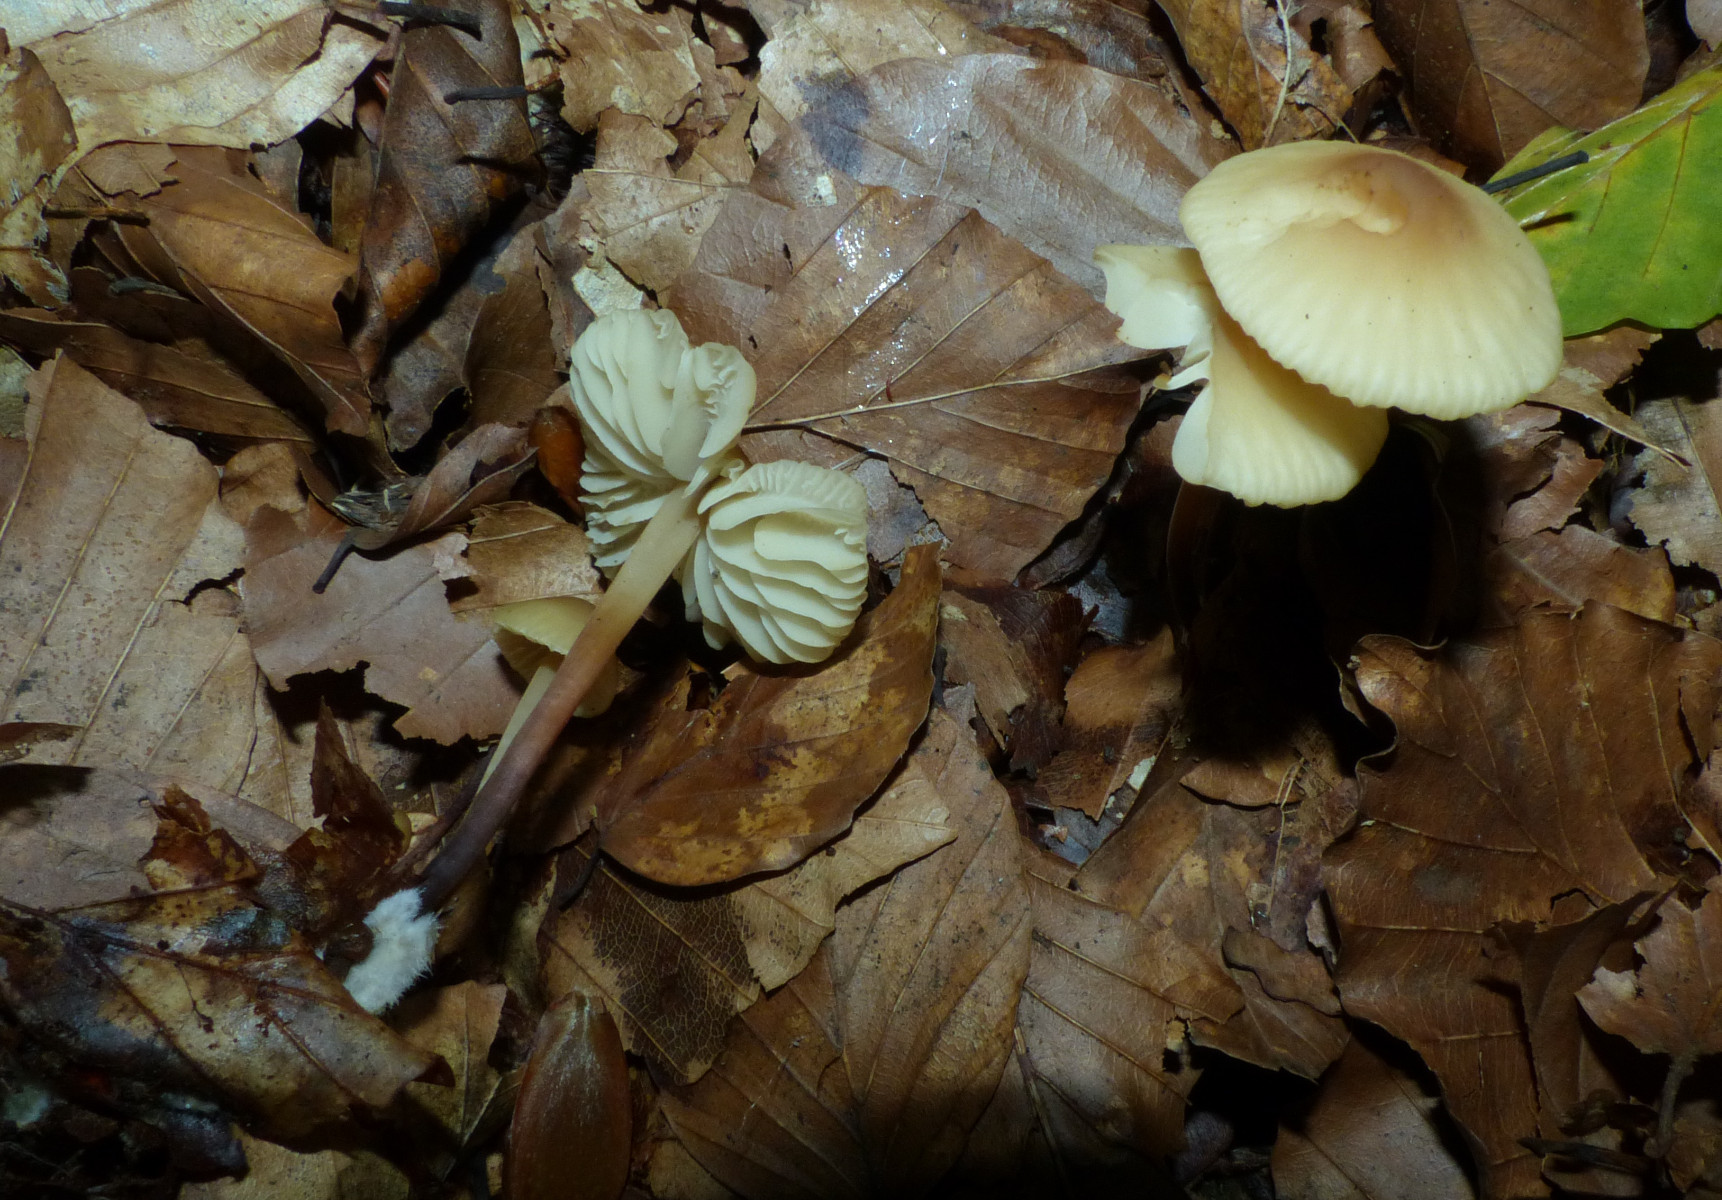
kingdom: Fungi
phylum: Basidiomycota
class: Agaricomycetes
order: Agaricales
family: Marasmiaceae
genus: Marasmius
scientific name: Marasmius torquescens
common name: filtfodet bruskhat
